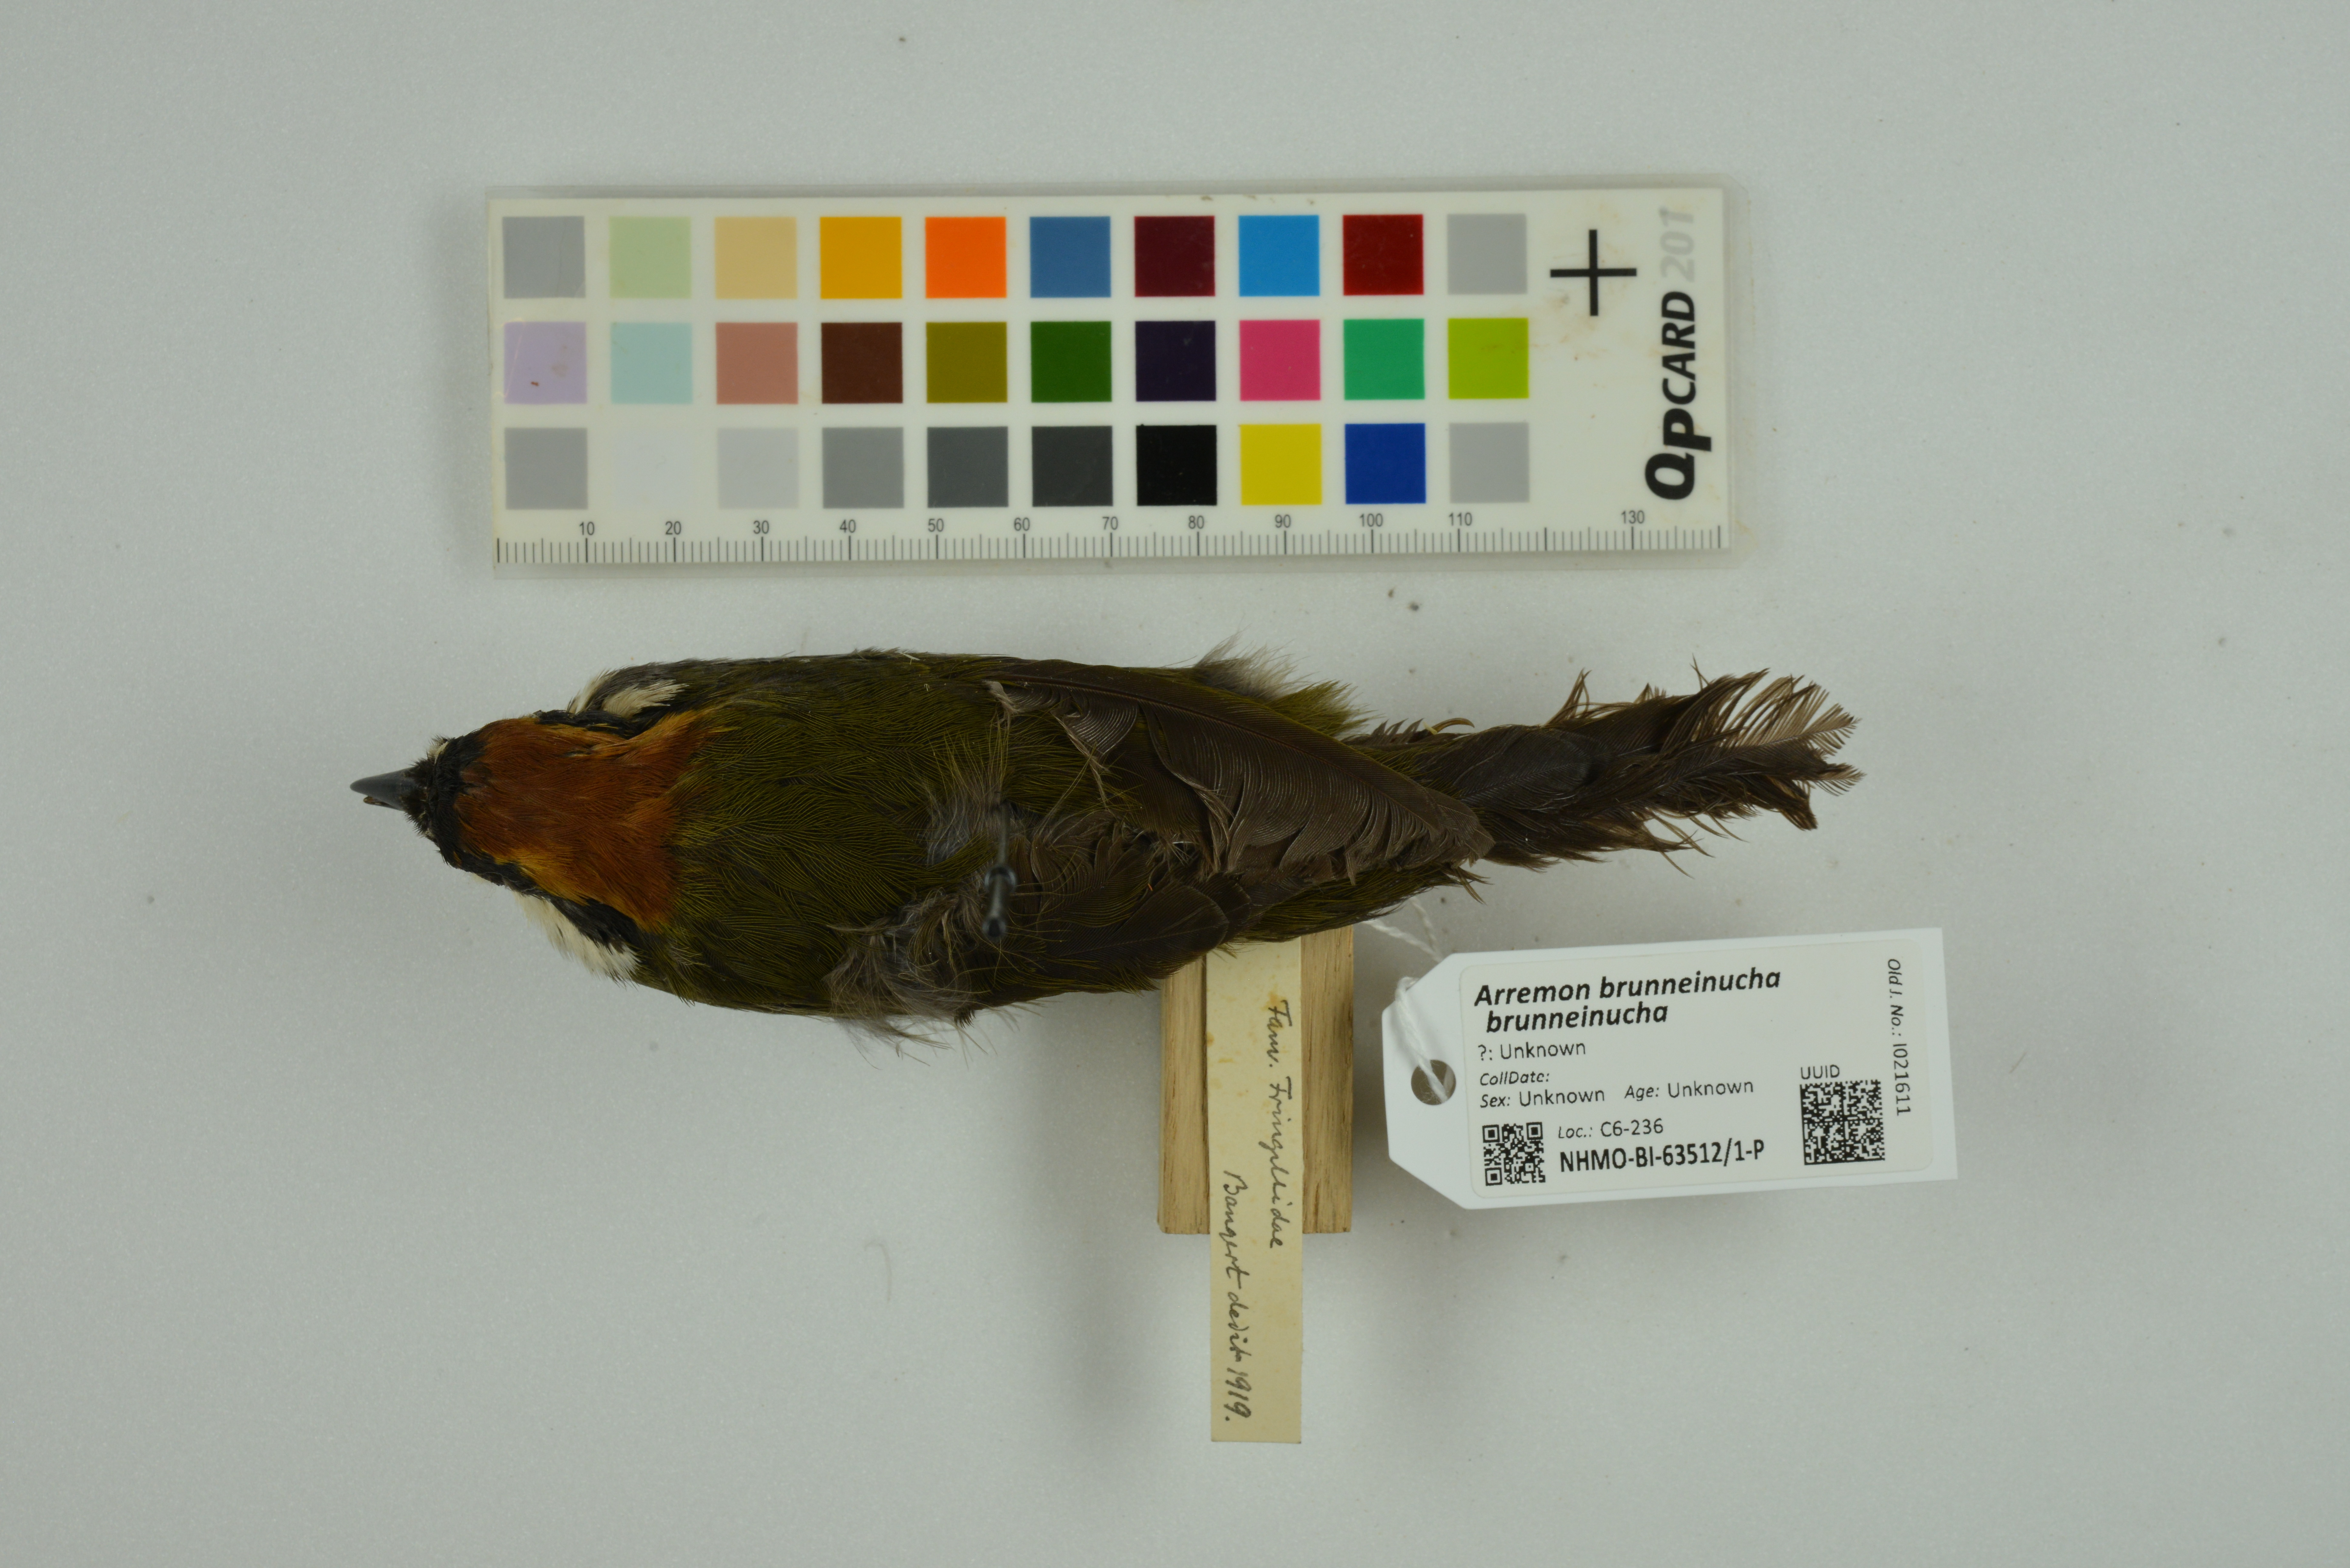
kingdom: Animalia
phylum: Chordata
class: Aves
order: Passeriformes
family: Passerellidae
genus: Arremon
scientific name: Arremon brunneinucha
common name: Chestnut-capped brushfinch
